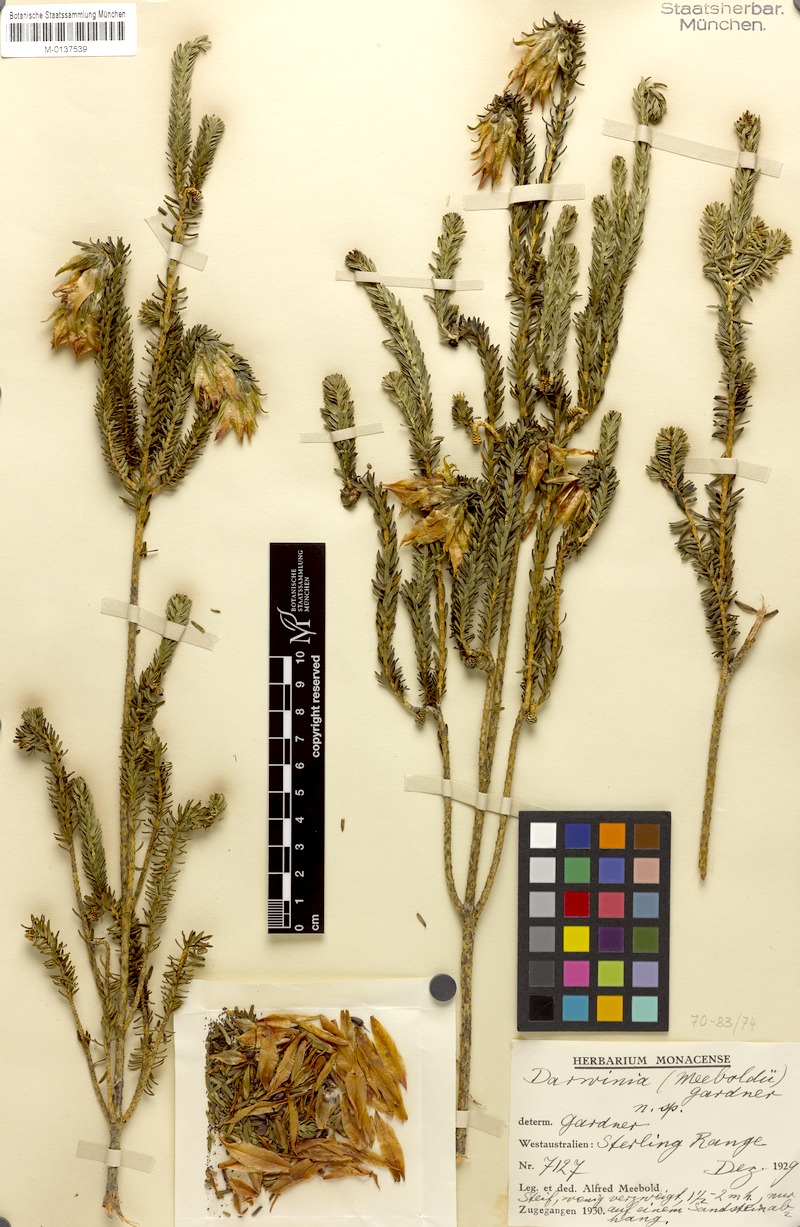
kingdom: Plantae
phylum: Tracheophyta
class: Magnoliopsida
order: Myrtales
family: Myrtaceae
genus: Darwinia
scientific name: Darwinia meeboldii
